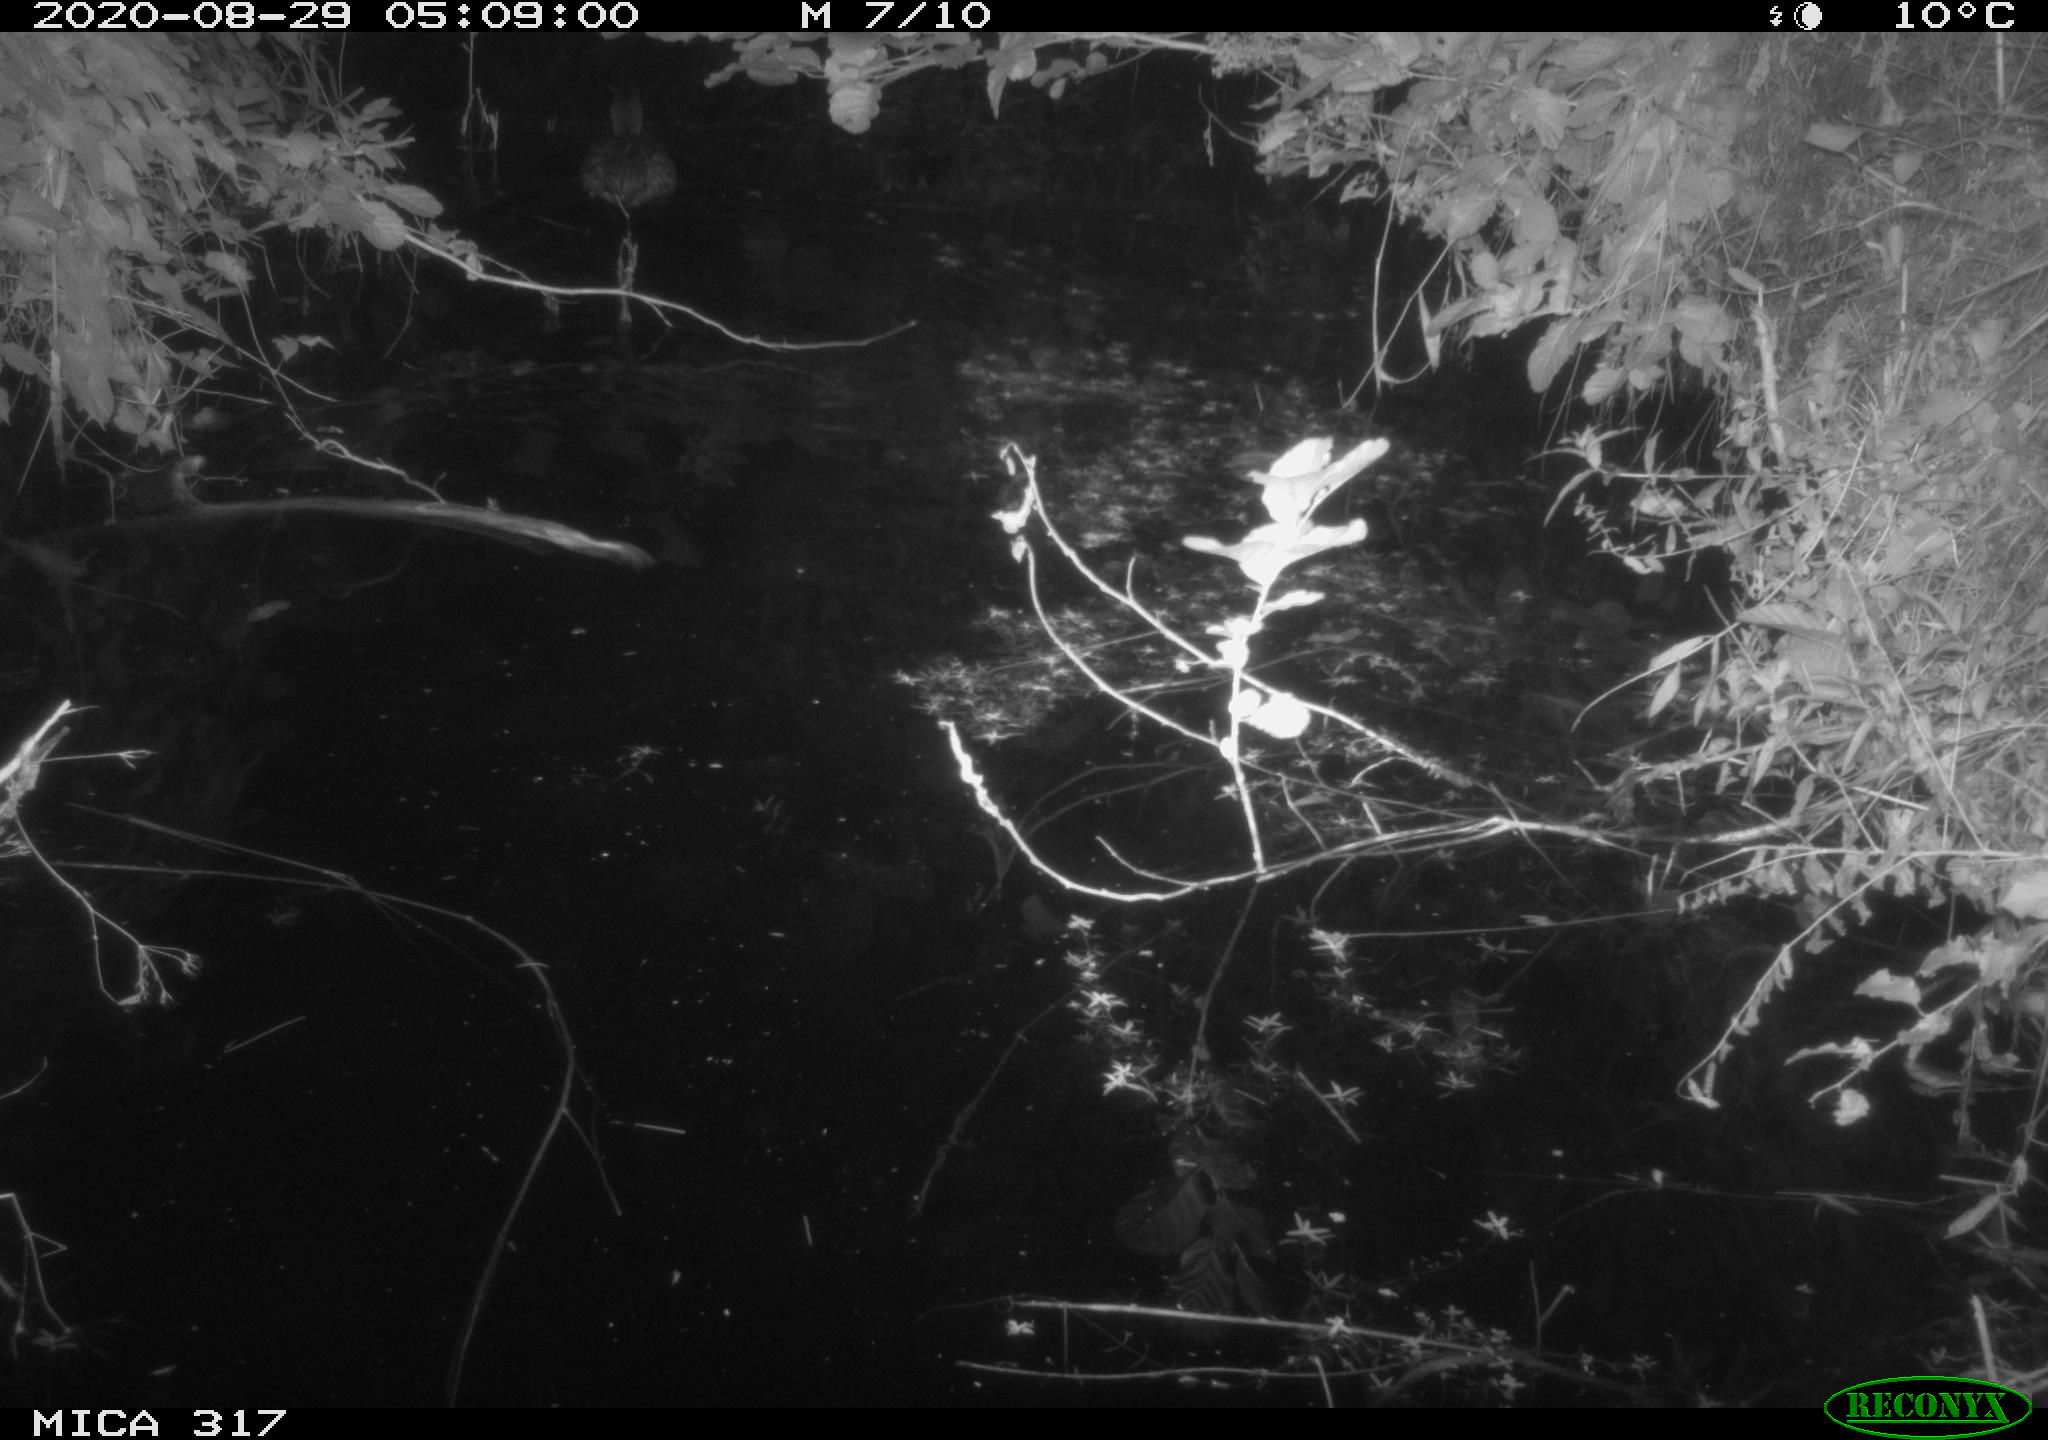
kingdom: Animalia
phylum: Chordata
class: Aves
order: Anseriformes
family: Anatidae
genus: Anas
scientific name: Anas platyrhynchos
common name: Mallard
